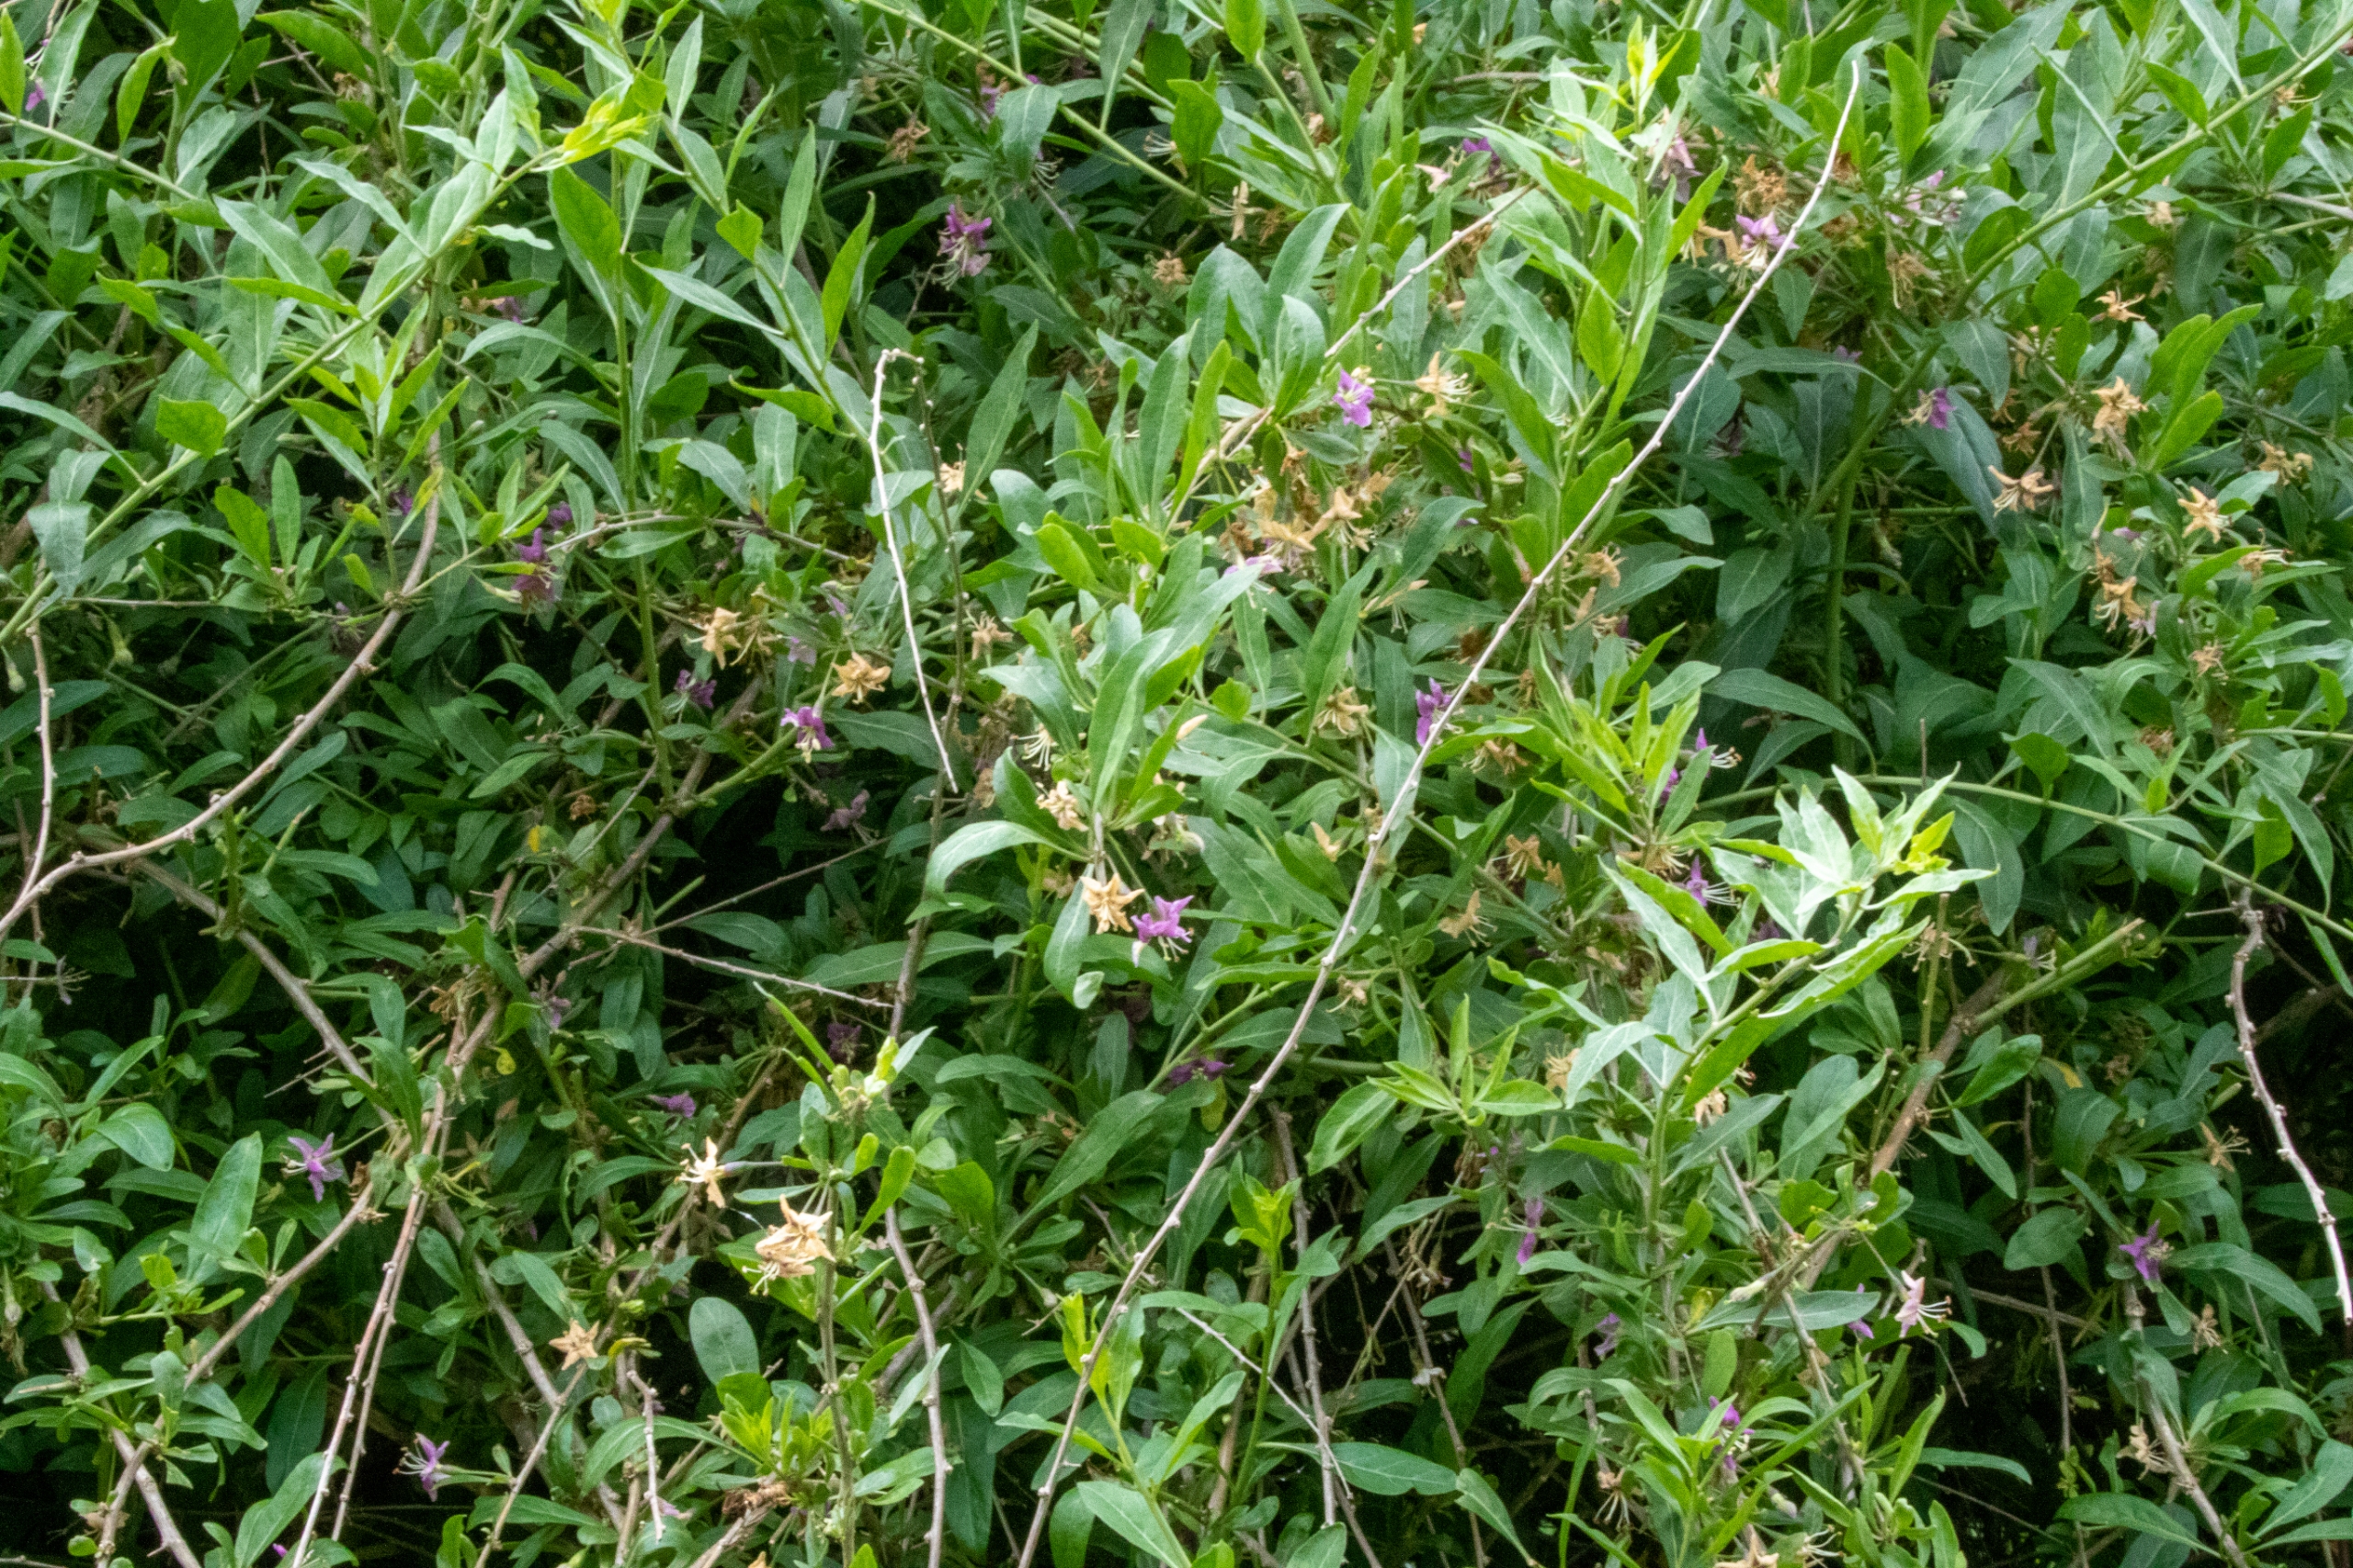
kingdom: Plantae
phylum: Tracheophyta
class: Magnoliopsida
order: Solanales
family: Solanaceae
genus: Lycium
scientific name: Lycium barbarum
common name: Bukketorn
